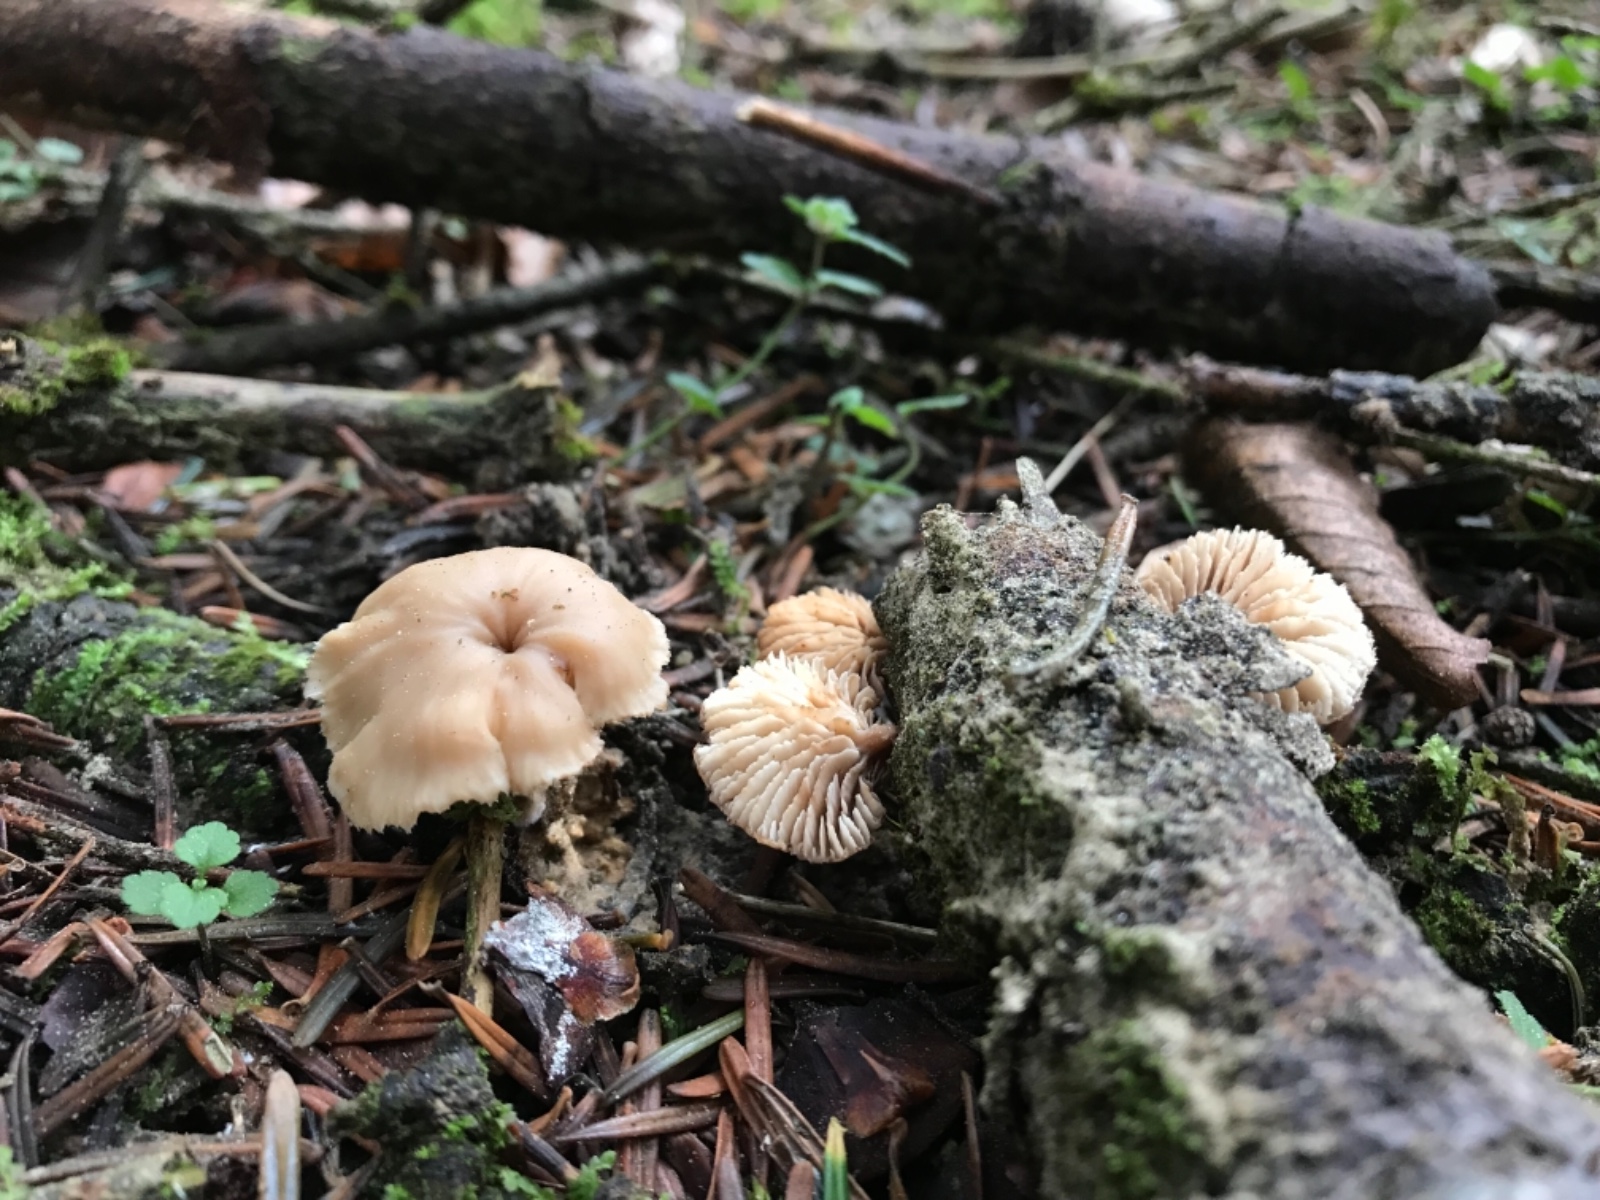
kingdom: Fungi
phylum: Basidiomycota
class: Agaricomycetes
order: Russulales
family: Auriscalpiaceae
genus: Lentinellus
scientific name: Lentinellus flabelliformis
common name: navle-savbladhat
